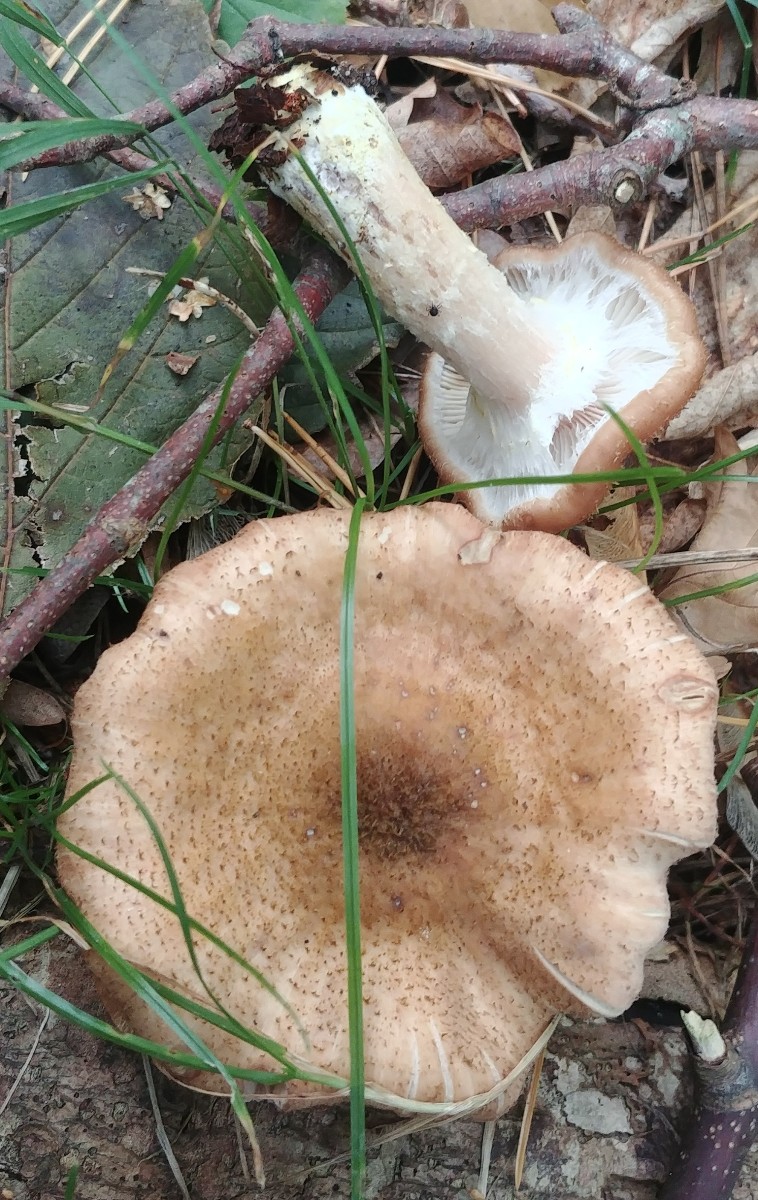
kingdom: Fungi
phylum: Basidiomycota
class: Agaricomycetes
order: Agaricales
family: Physalacriaceae
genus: Armillaria
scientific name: Armillaria lutea
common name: køllestokket honningsvamp
